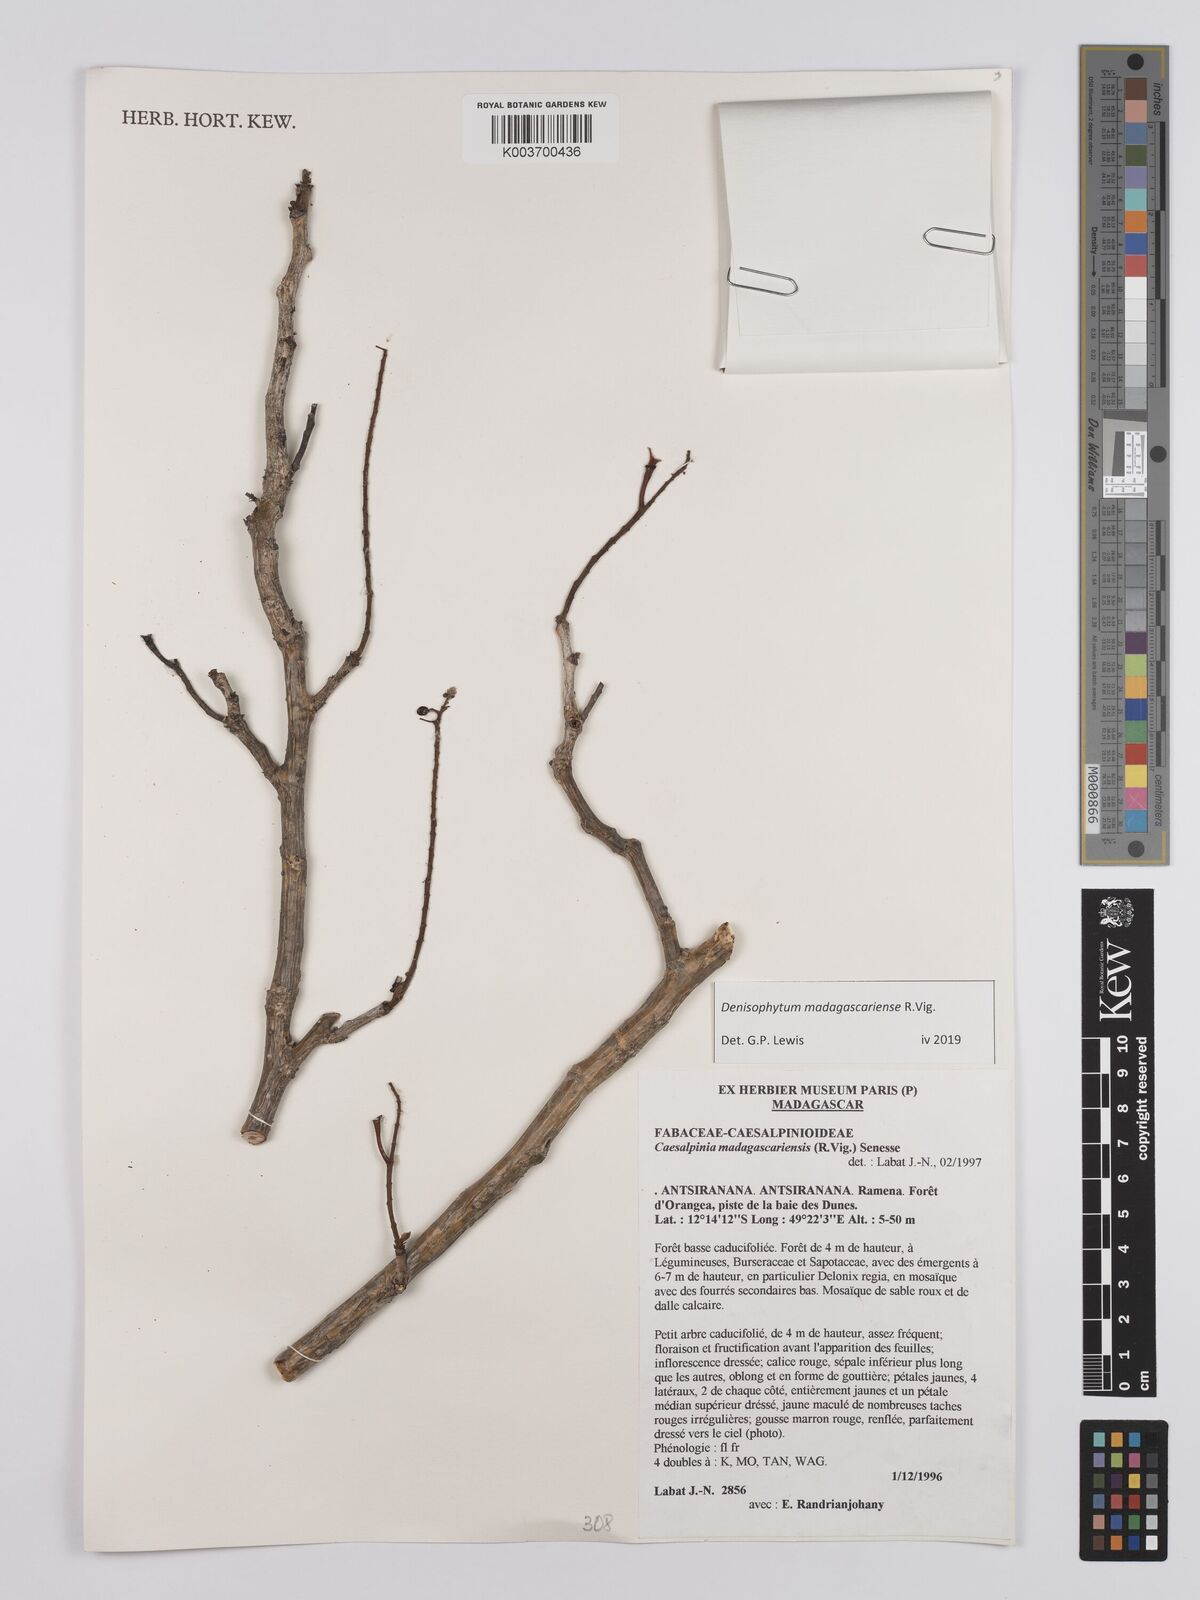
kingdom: Plantae
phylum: Tracheophyta
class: Magnoliopsida
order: Fabales
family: Fabaceae
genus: Denisophytum
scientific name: Denisophytum madagascariense
